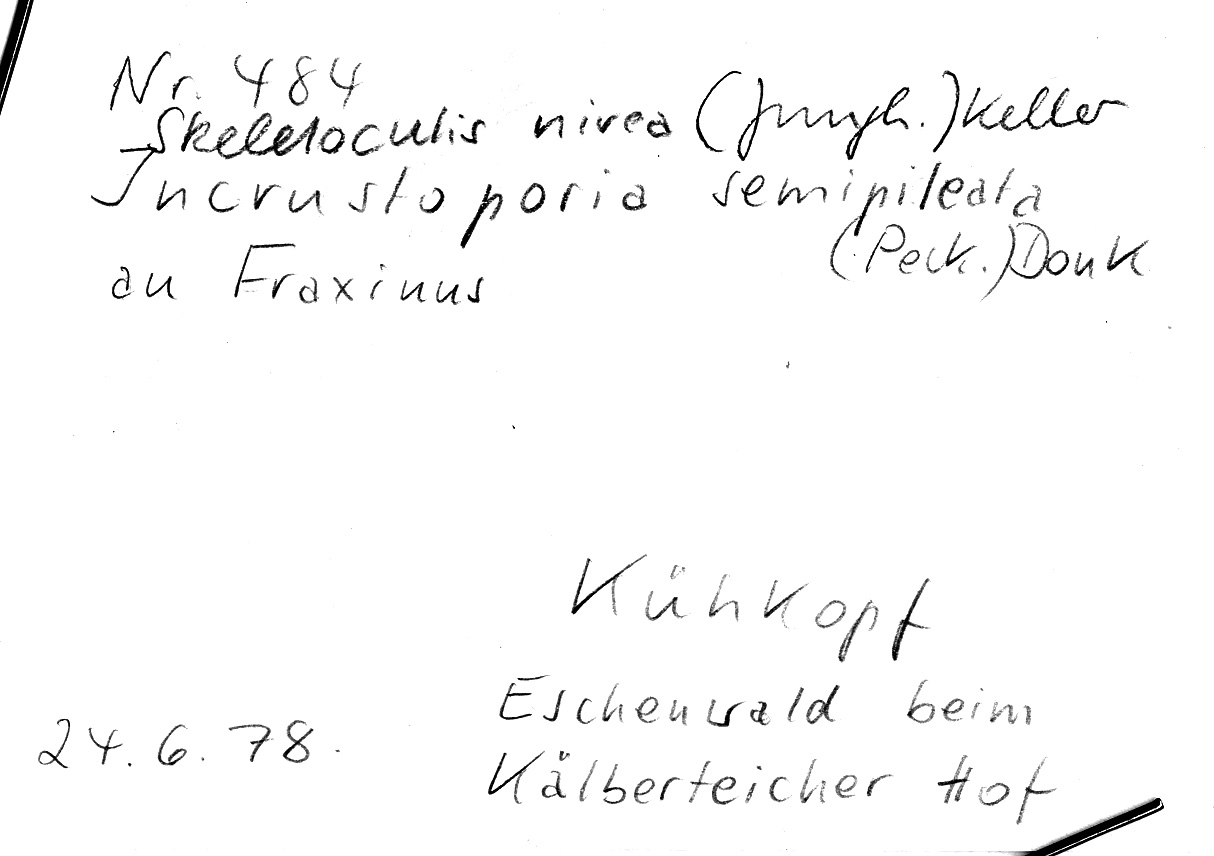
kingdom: Fungi
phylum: Basidiomycota
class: Agaricomycetes
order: Polyporales
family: Incrustoporiaceae
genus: Skeletocutis
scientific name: Skeletocutis nivea
